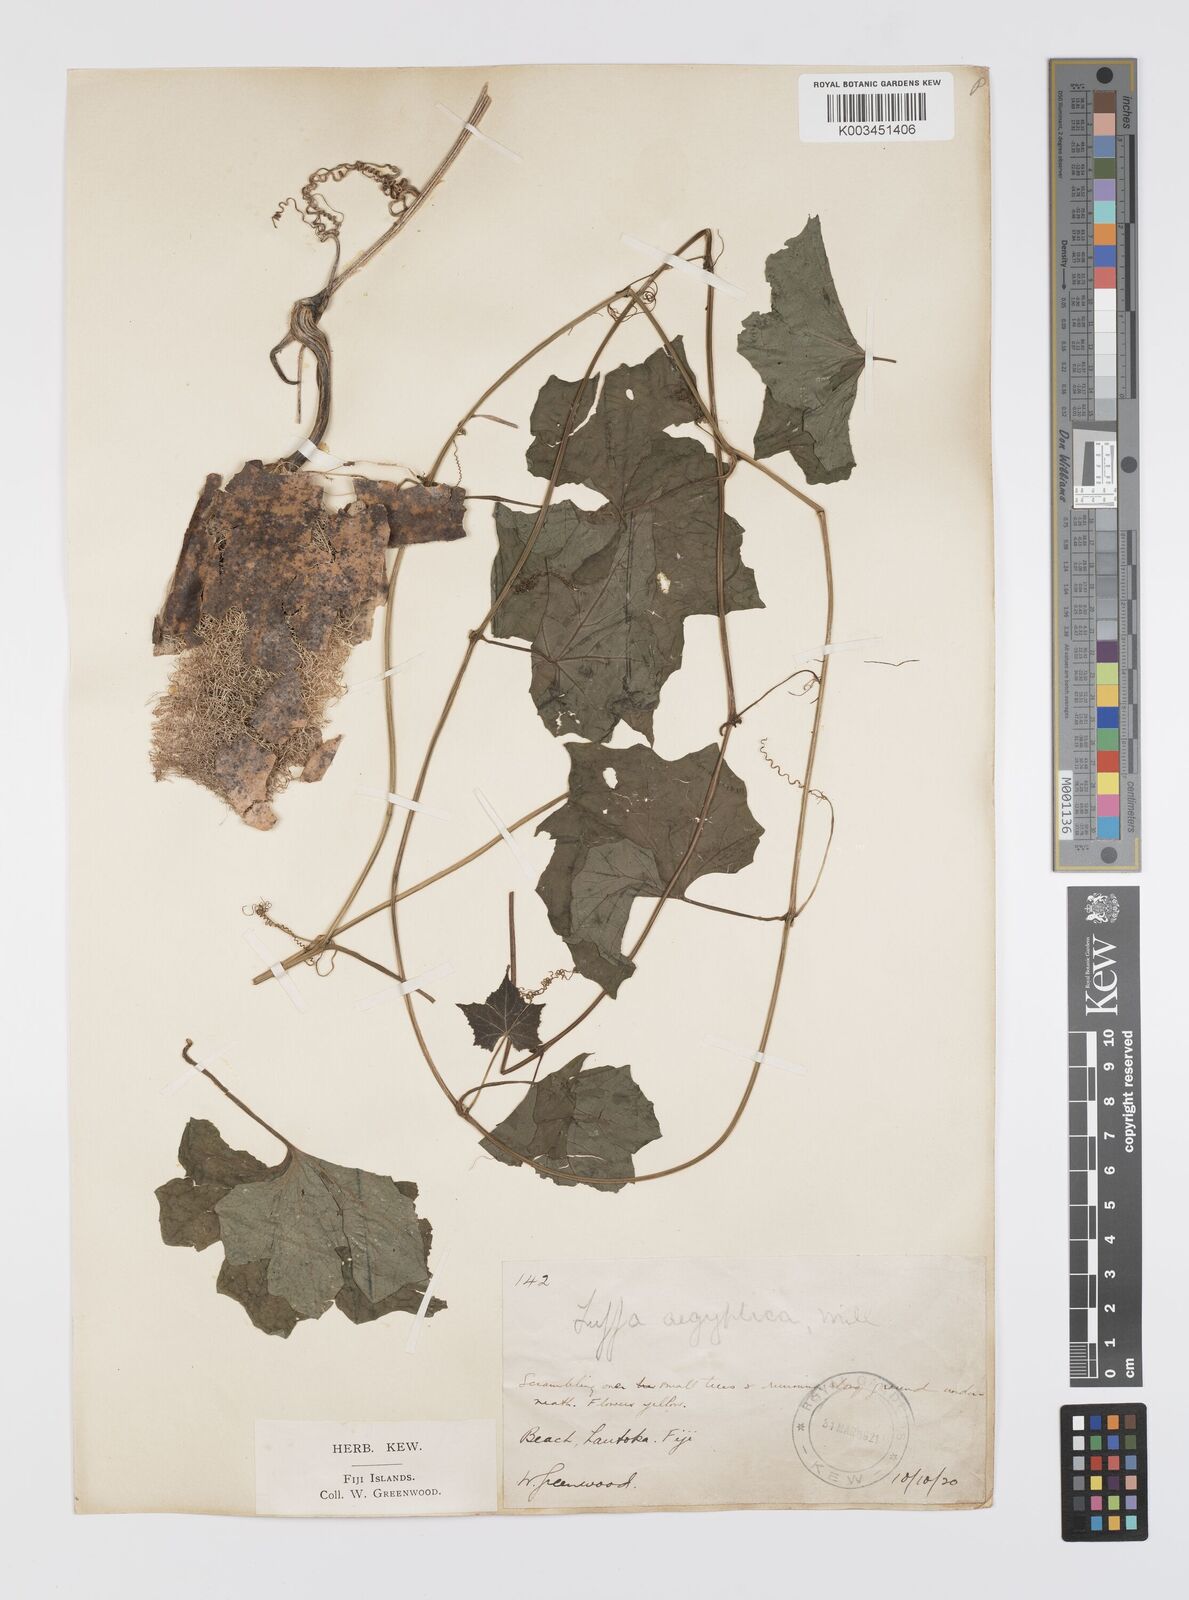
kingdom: Plantae
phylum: Tracheophyta
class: Magnoliopsida
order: Cucurbitales
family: Cucurbitaceae
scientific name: Cucurbitaceae
